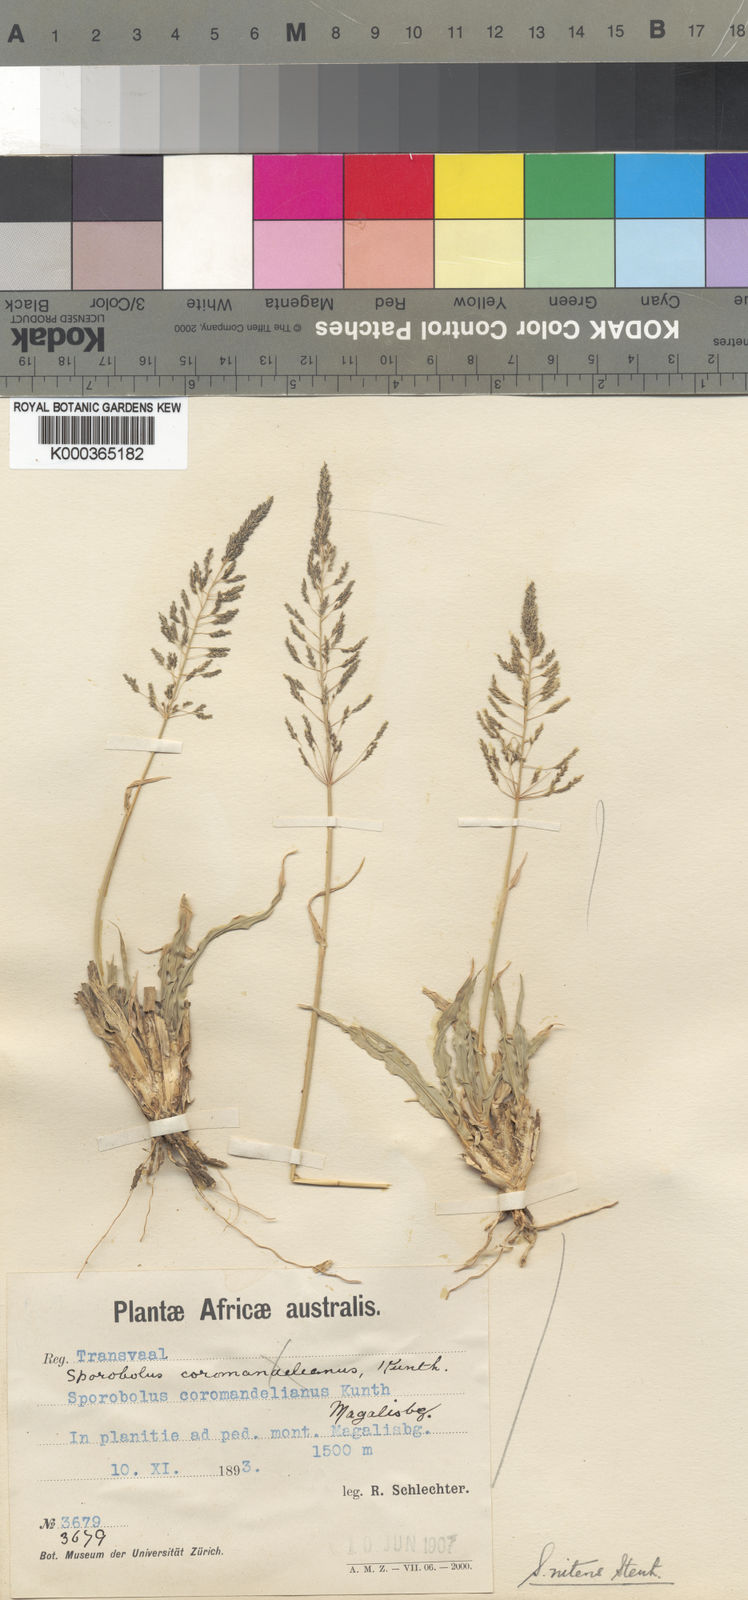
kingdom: Plantae
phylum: Tracheophyta
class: Liliopsida
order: Poales
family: Poaceae
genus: Sporobolus
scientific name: Sporobolus nitens
